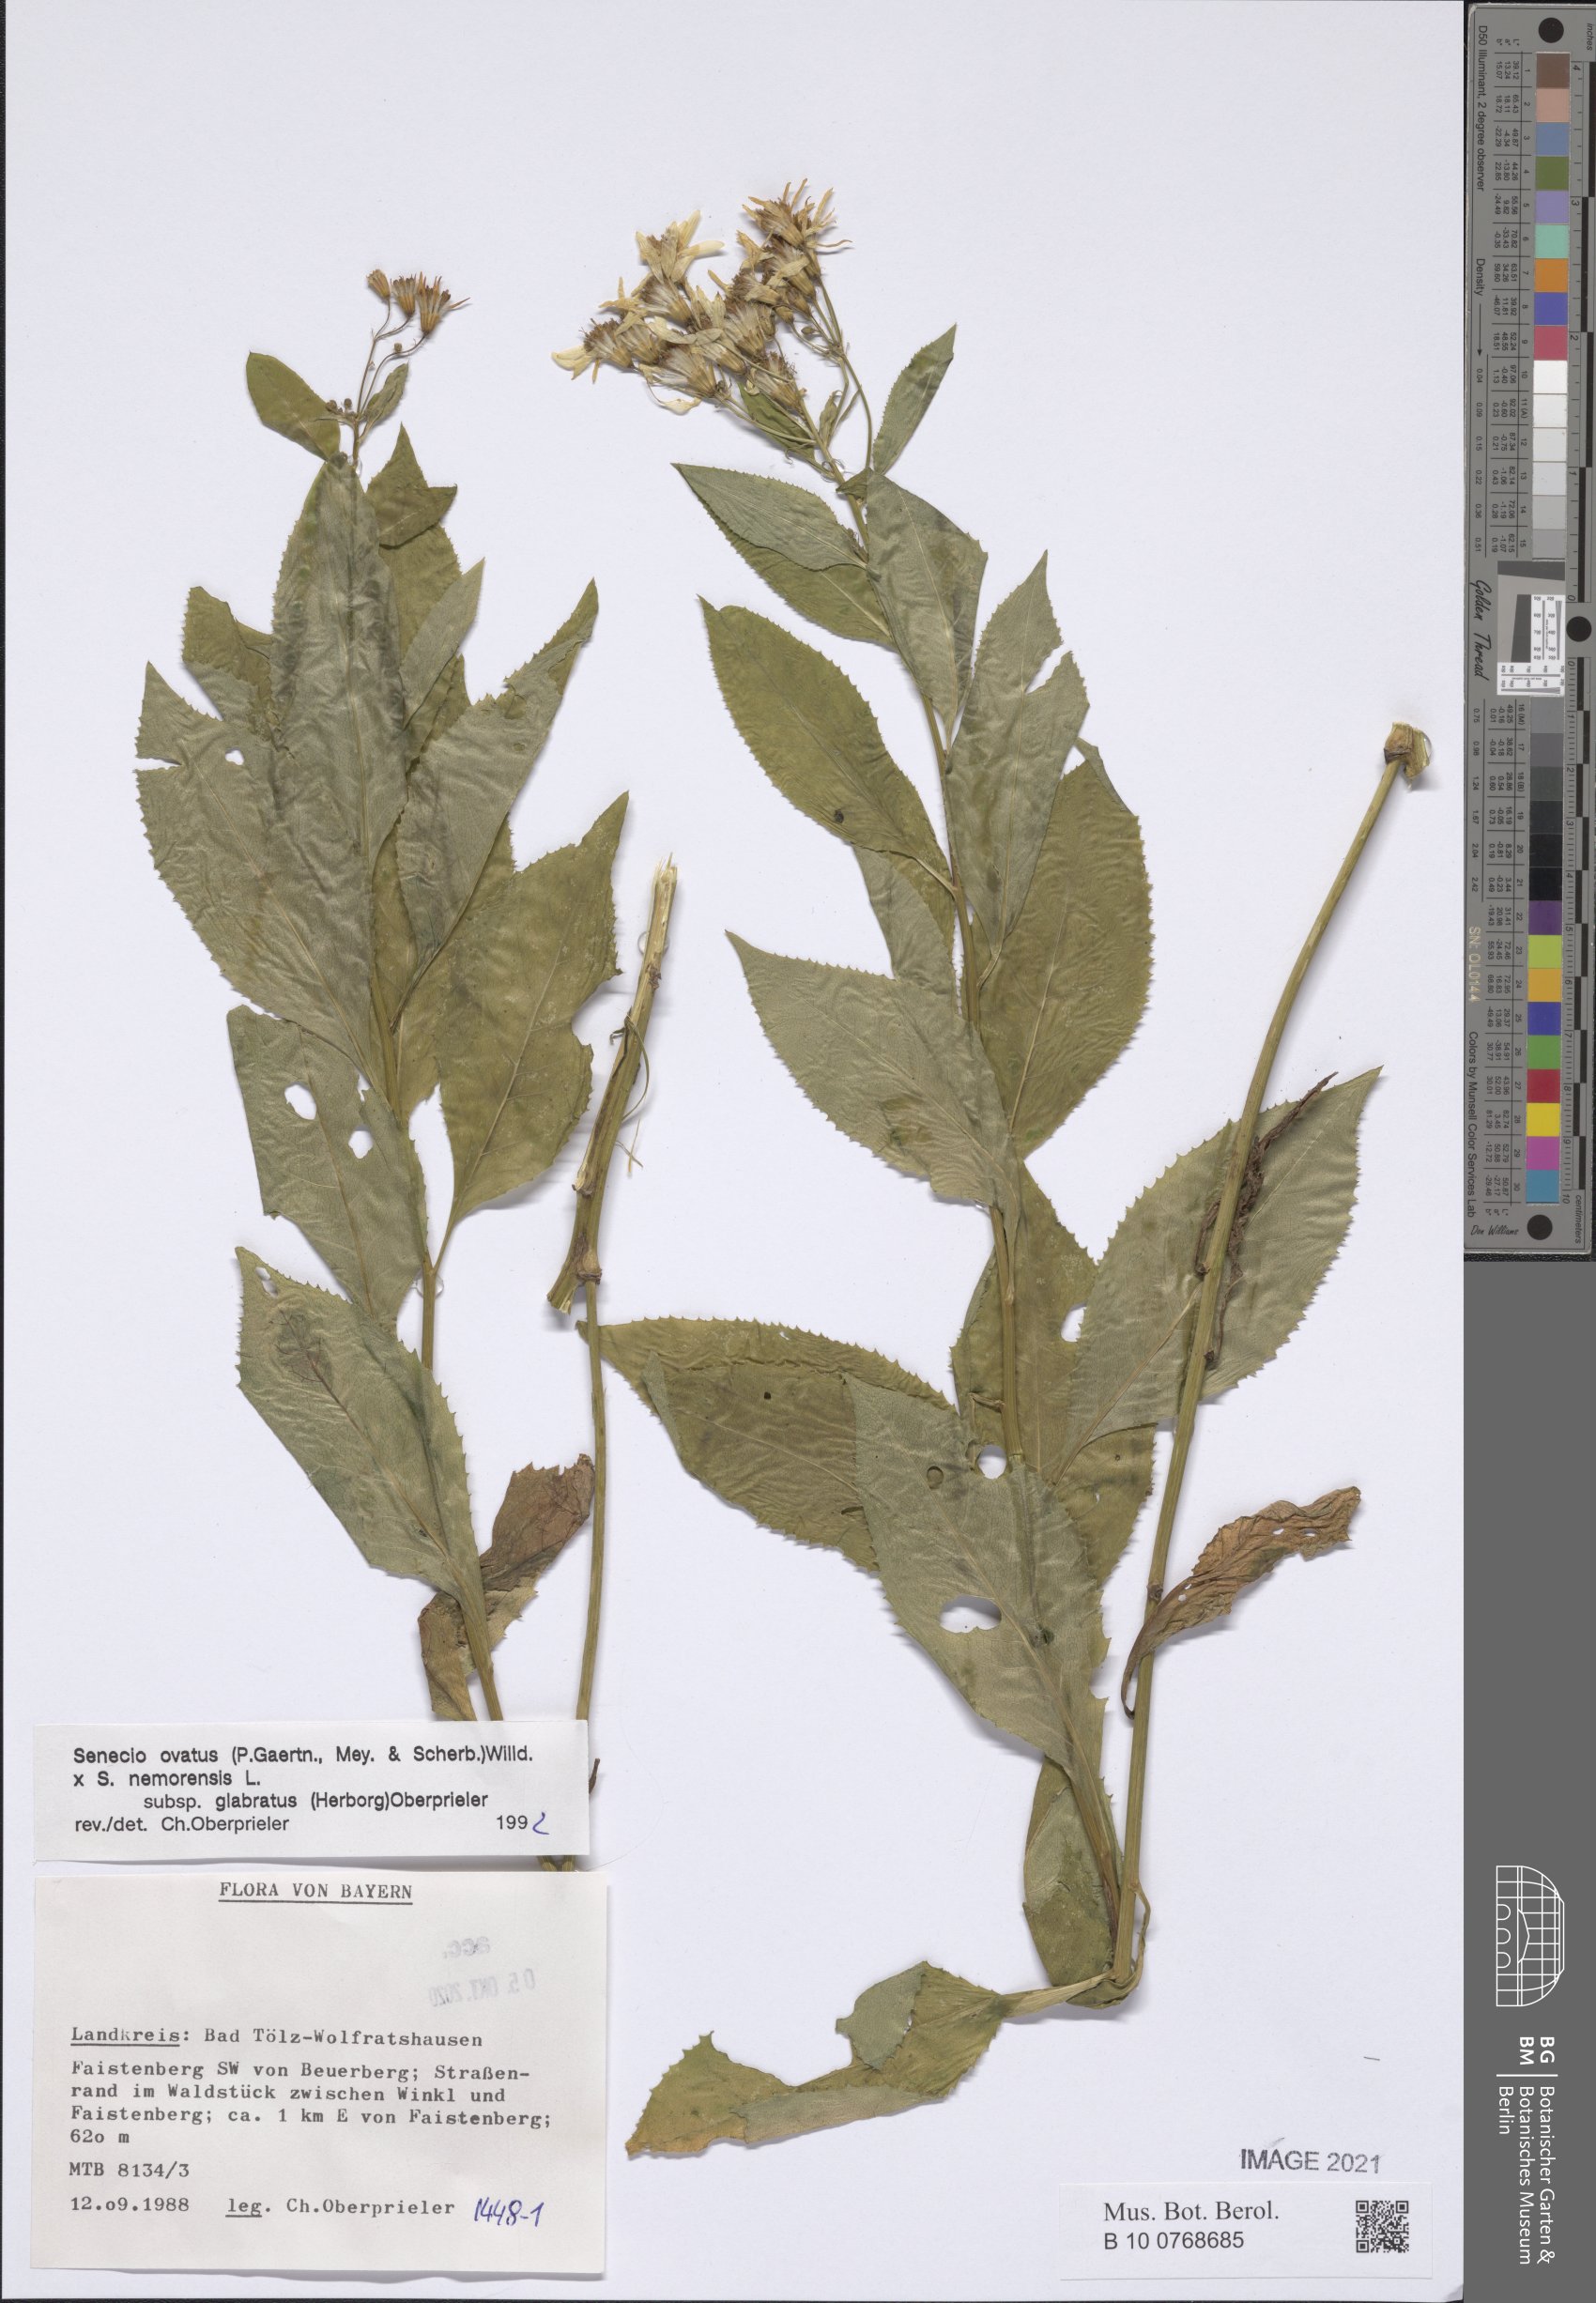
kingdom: Plantae
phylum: Tracheophyta
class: Magnoliopsida
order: Asterales
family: Asteraceae
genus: Senecio
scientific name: Senecio ovatus
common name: Wood ragwort
